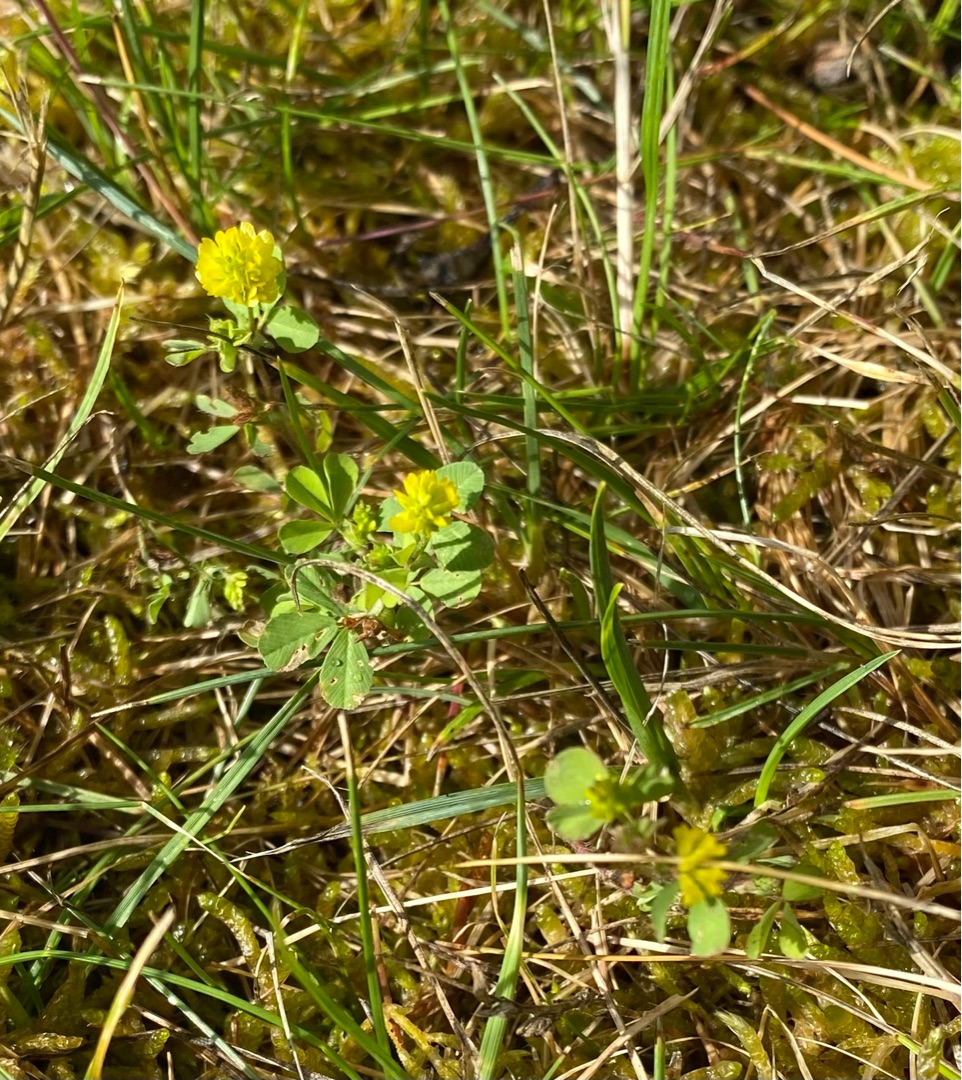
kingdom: Plantae
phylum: Tracheophyta
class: Magnoliopsida
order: Fabales
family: Fabaceae
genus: Trifolium
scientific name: Trifolium dubium
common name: Fin kløver
